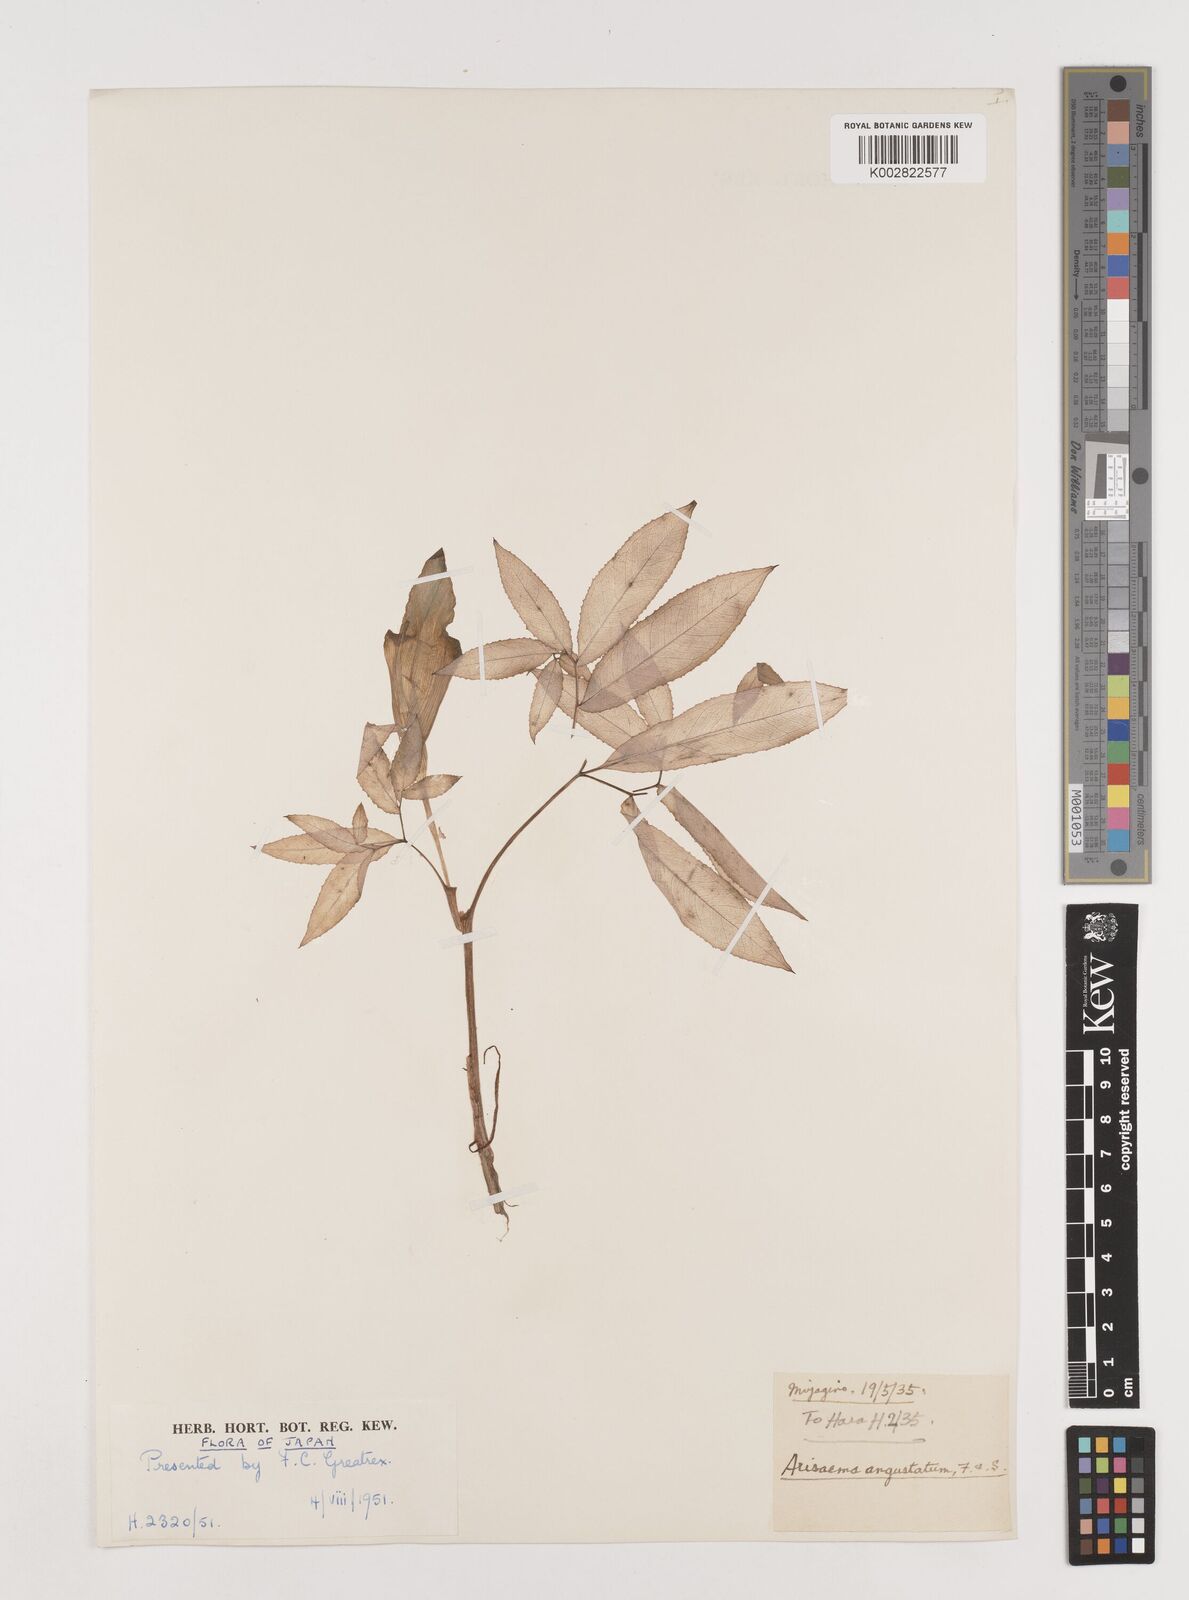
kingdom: Plantae
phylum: Tracheophyta
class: Liliopsida
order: Alismatales
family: Araceae
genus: Arisaema
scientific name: Arisaema serratum
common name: Japanese arisaema
